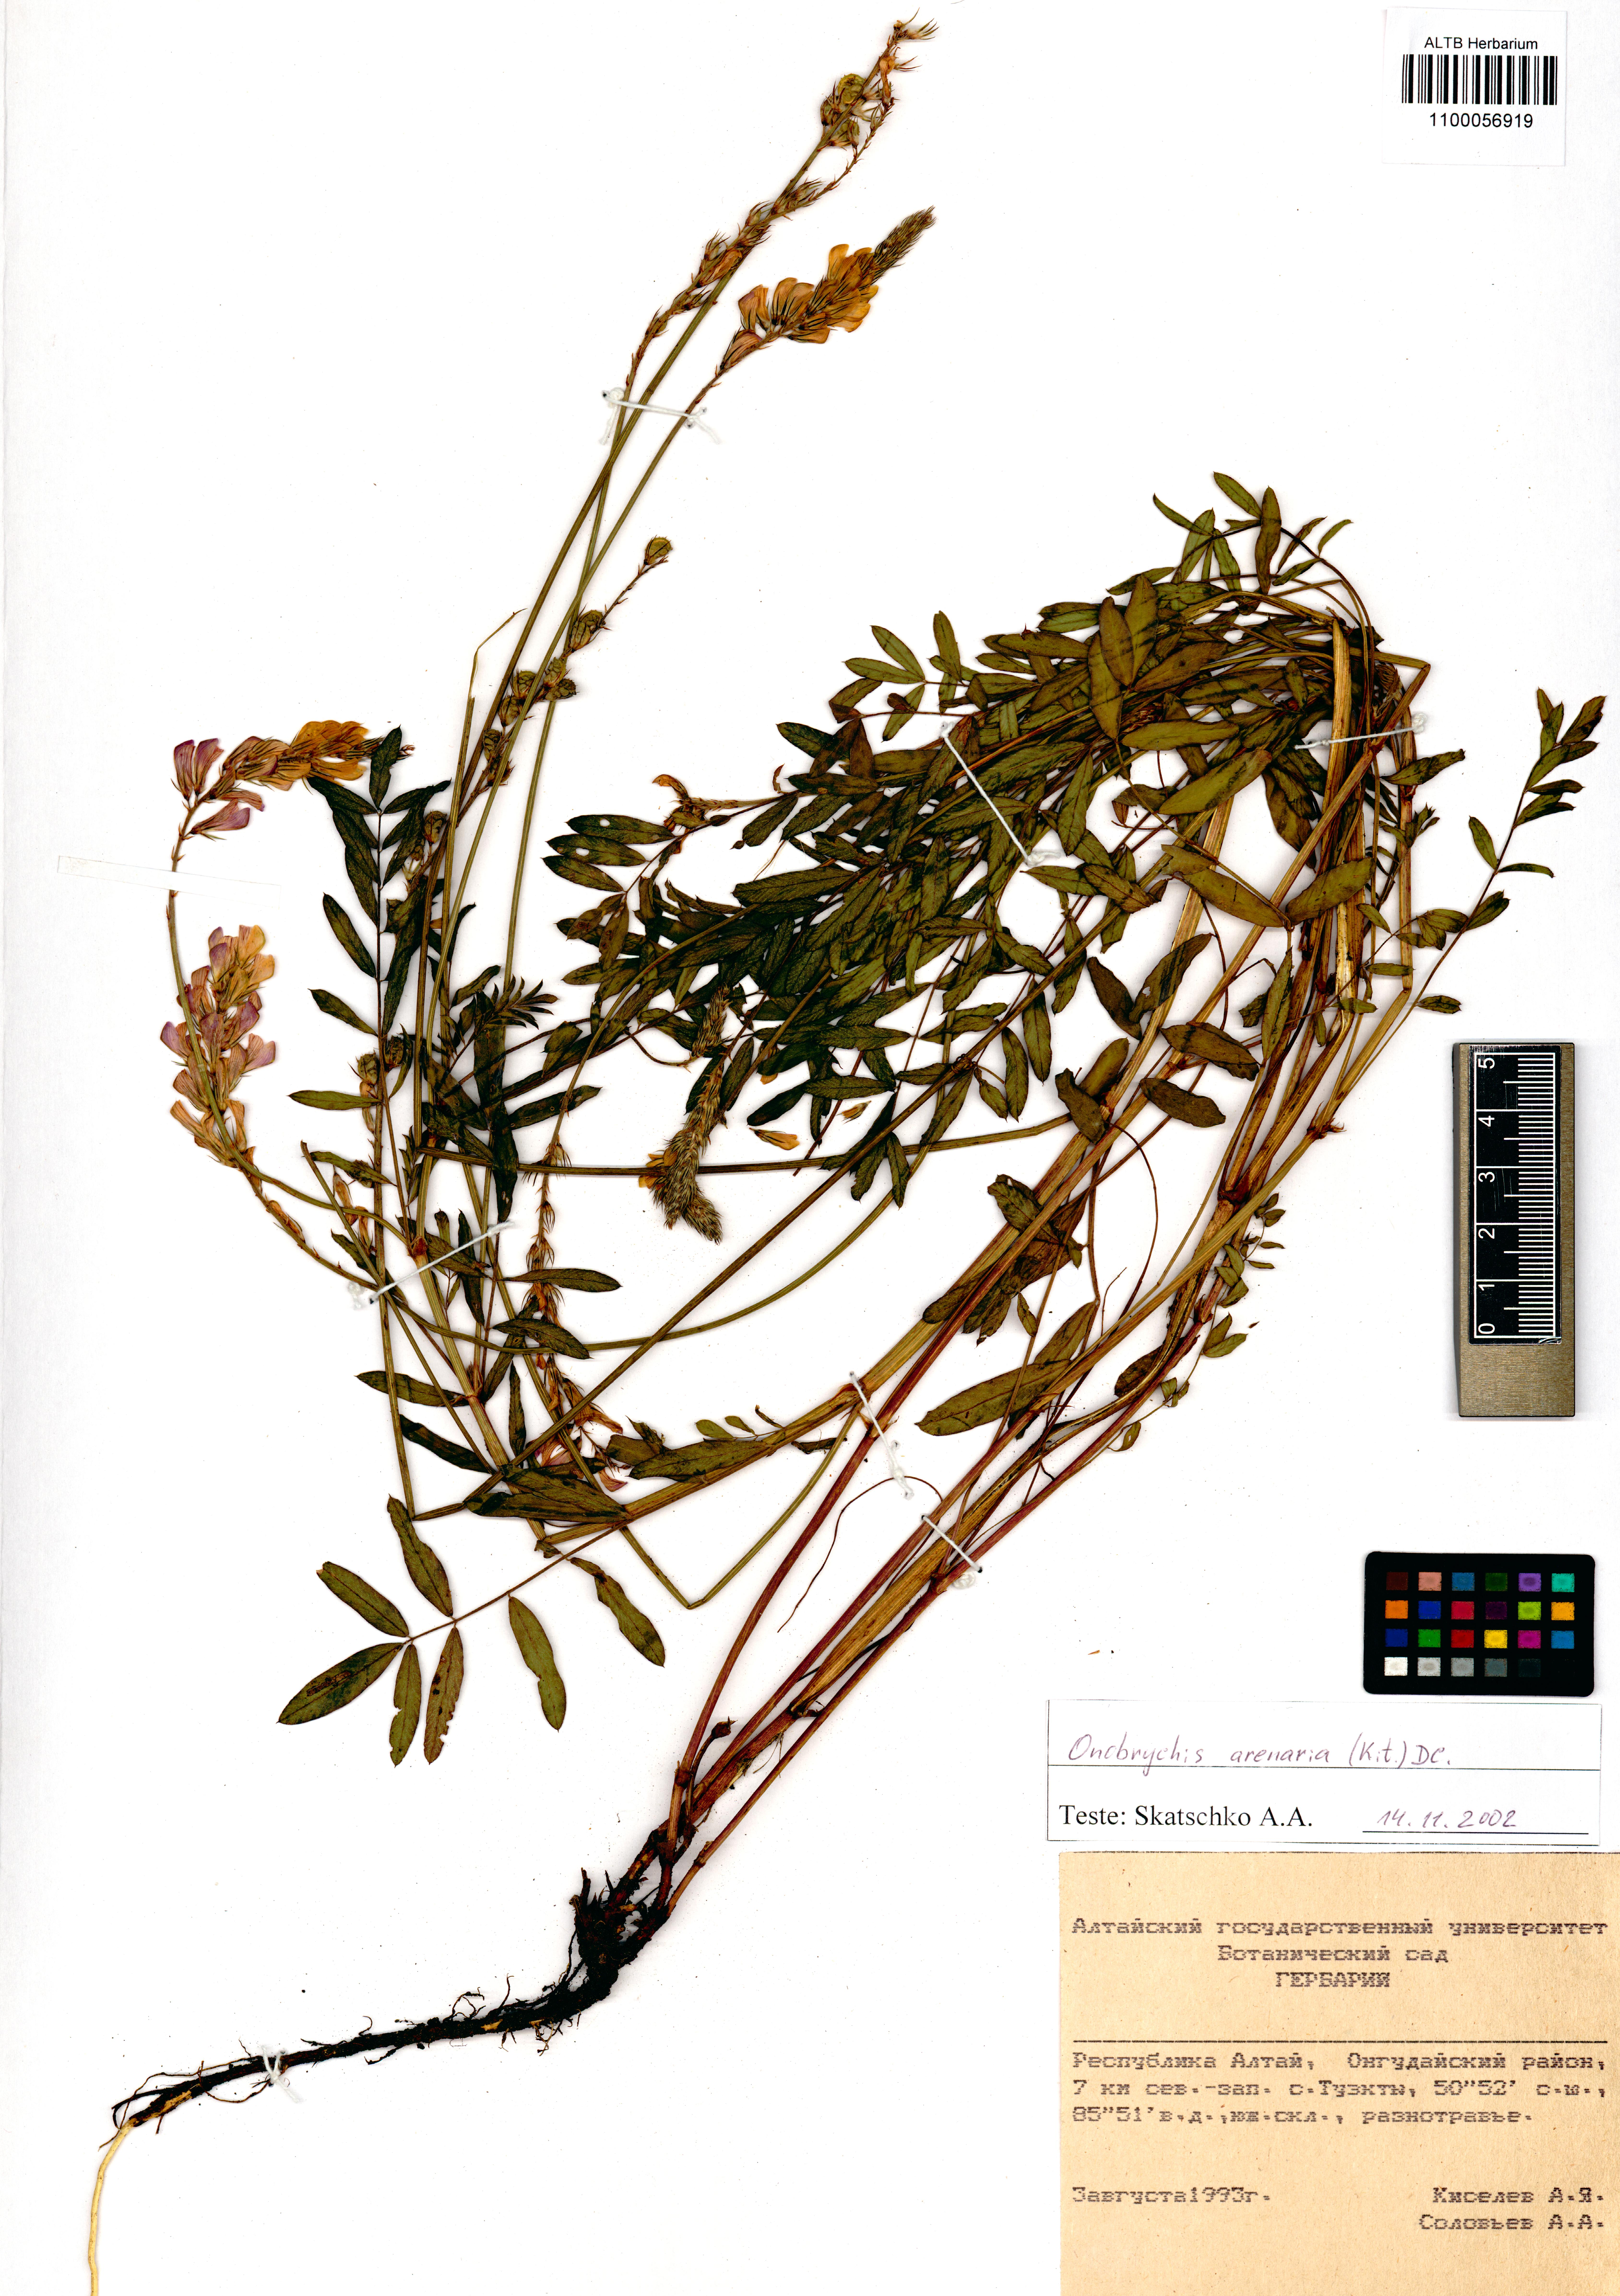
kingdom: Plantae
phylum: Tracheophyta
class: Magnoliopsida
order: Fabales
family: Fabaceae
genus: Onobrychis
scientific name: Onobrychis arenaria
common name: Sand esparcet
